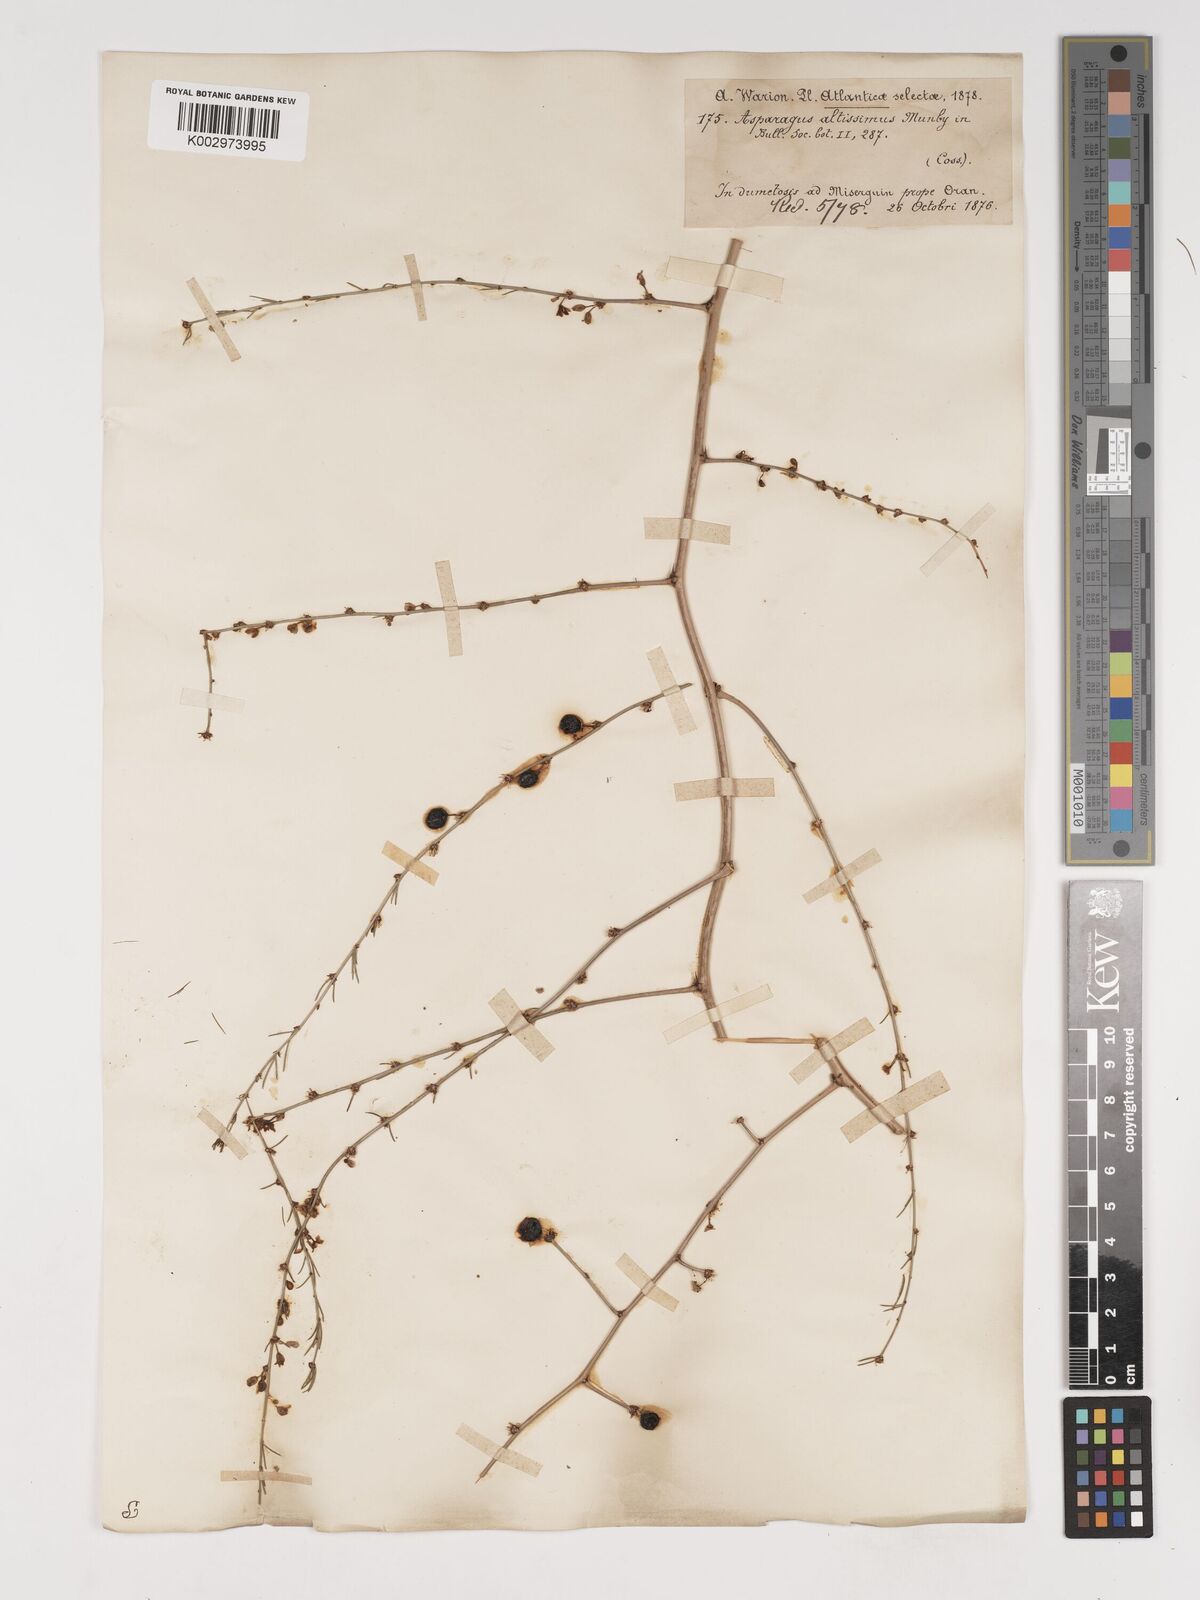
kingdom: Plantae
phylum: Tracheophyta
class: Liliopsida
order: Asparagales
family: Asparagaceae
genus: Asparagus
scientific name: Asparagus officinalis
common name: Garden asparagus
